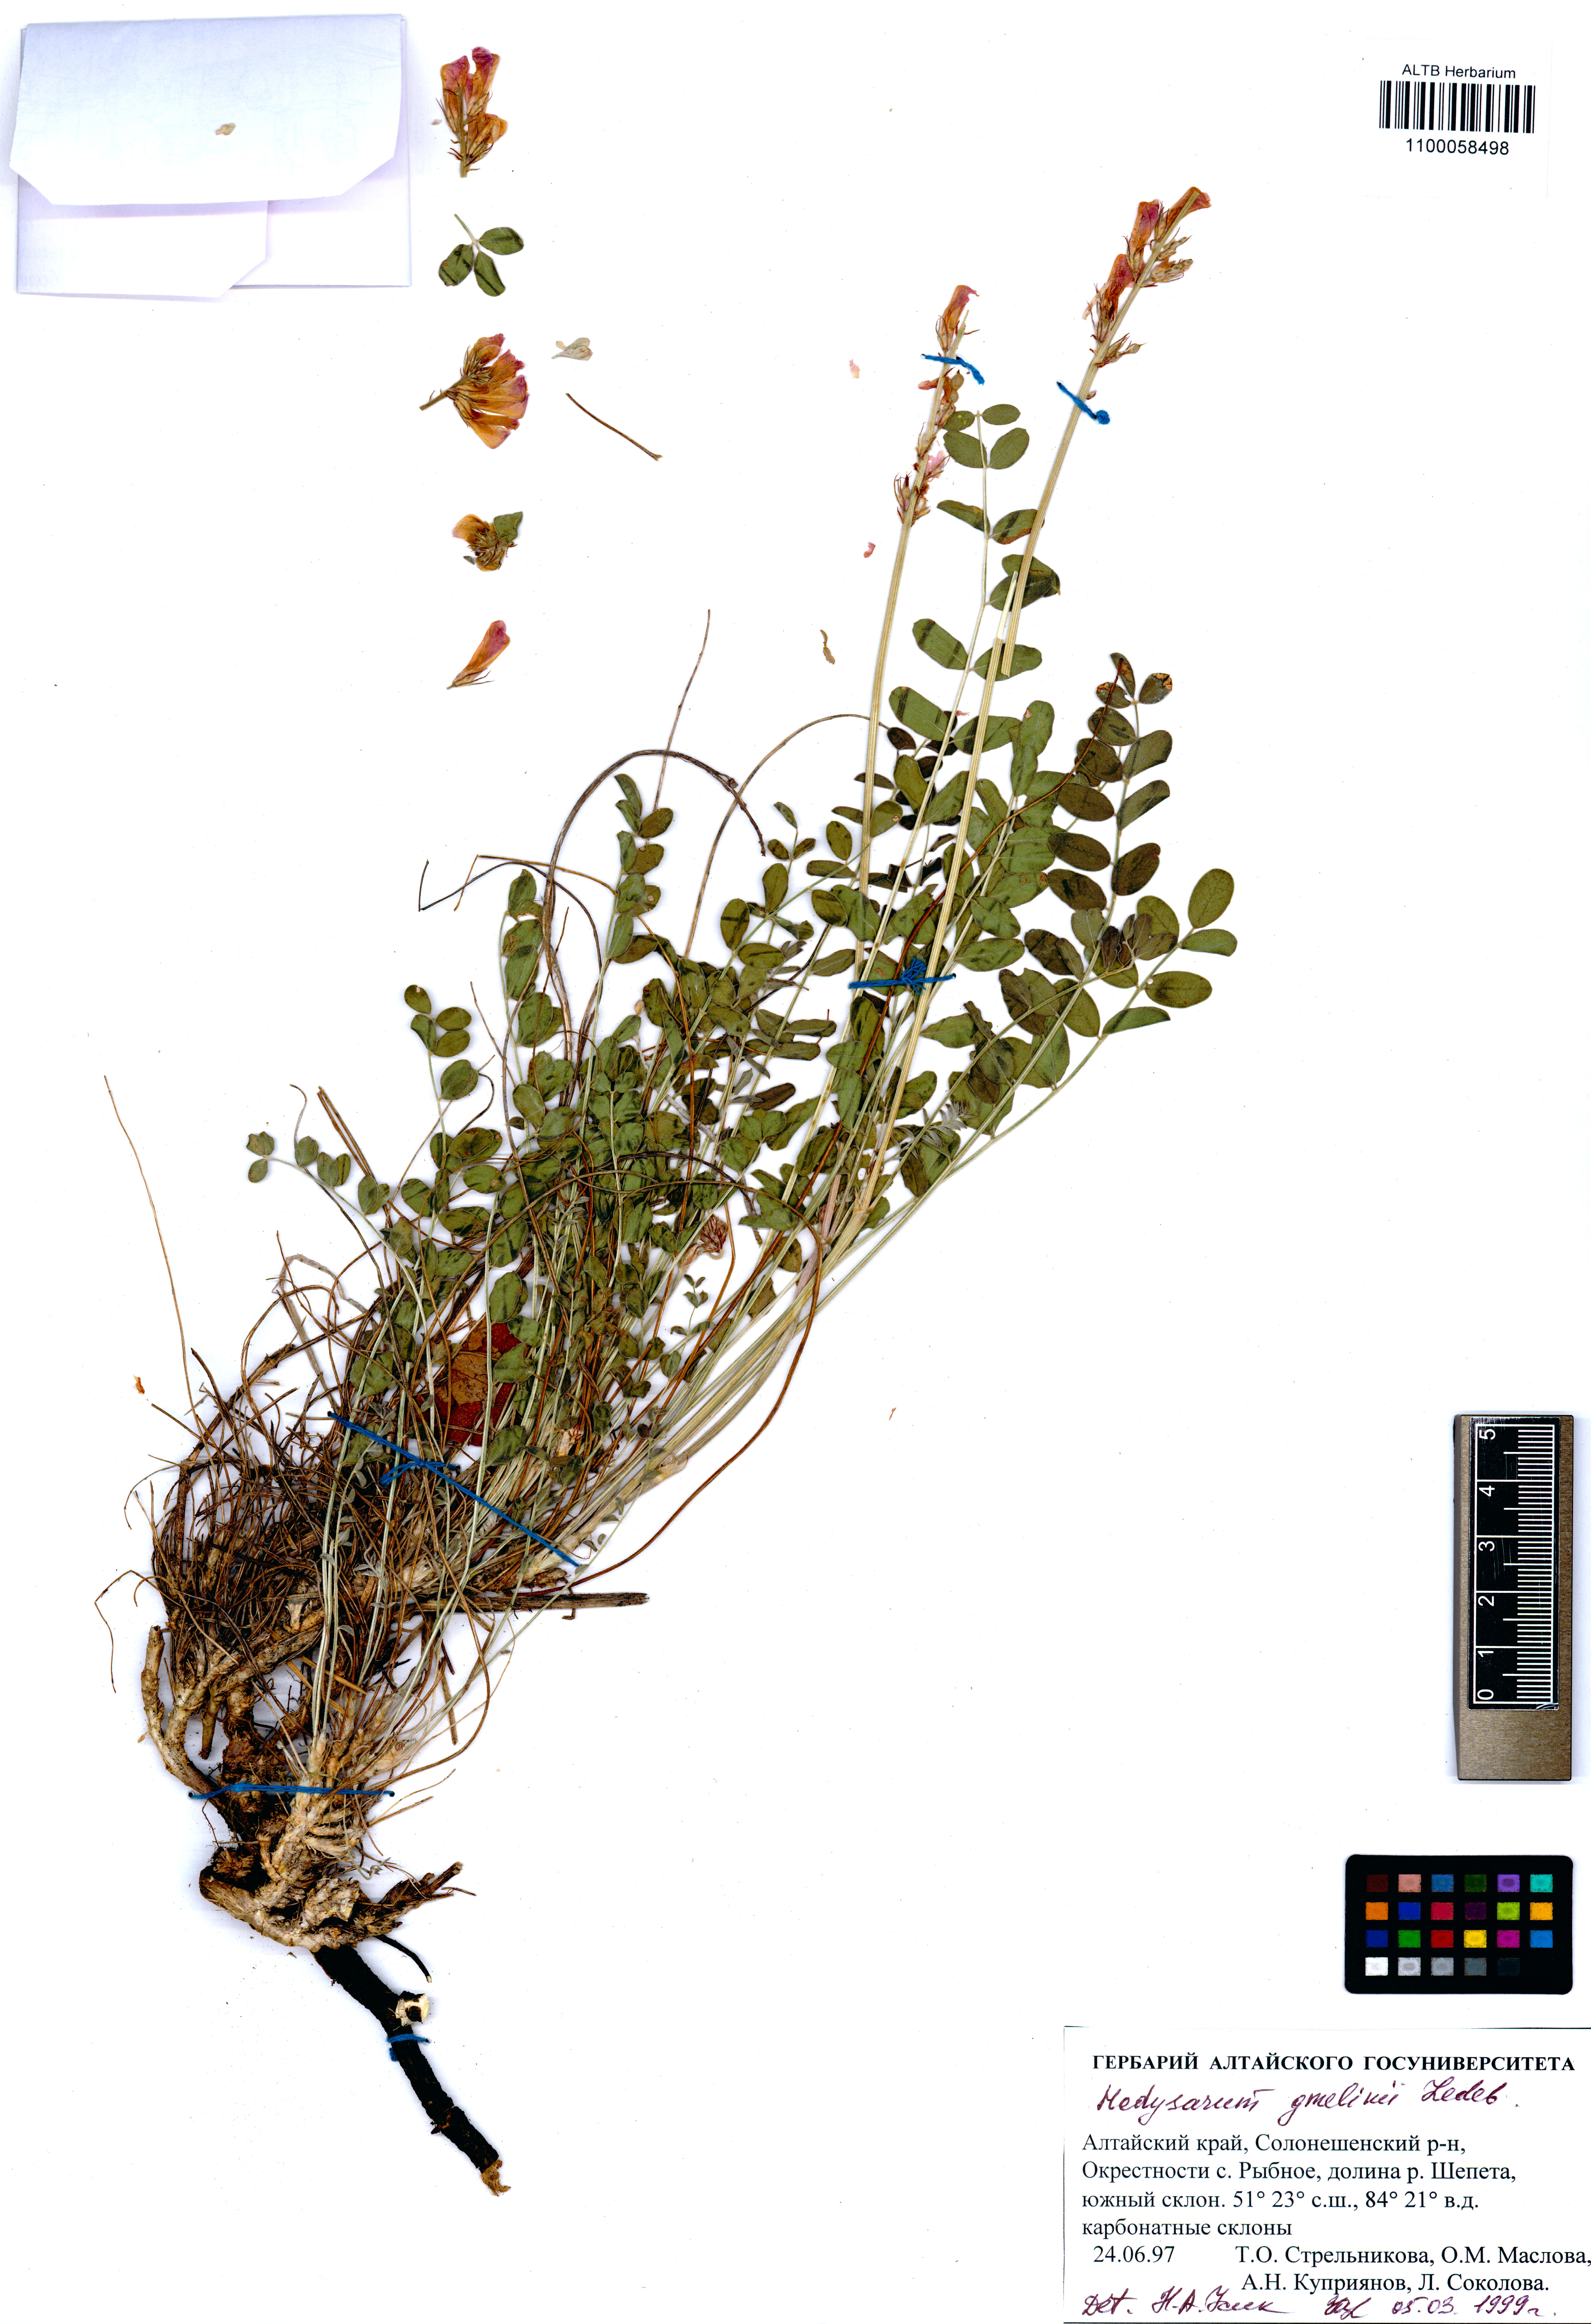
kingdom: Plantae
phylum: Tracheophyta
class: Magnoliopsida
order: Fabales
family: Fabaceae
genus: Hedysarum
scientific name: Hedysarum gmelinii
